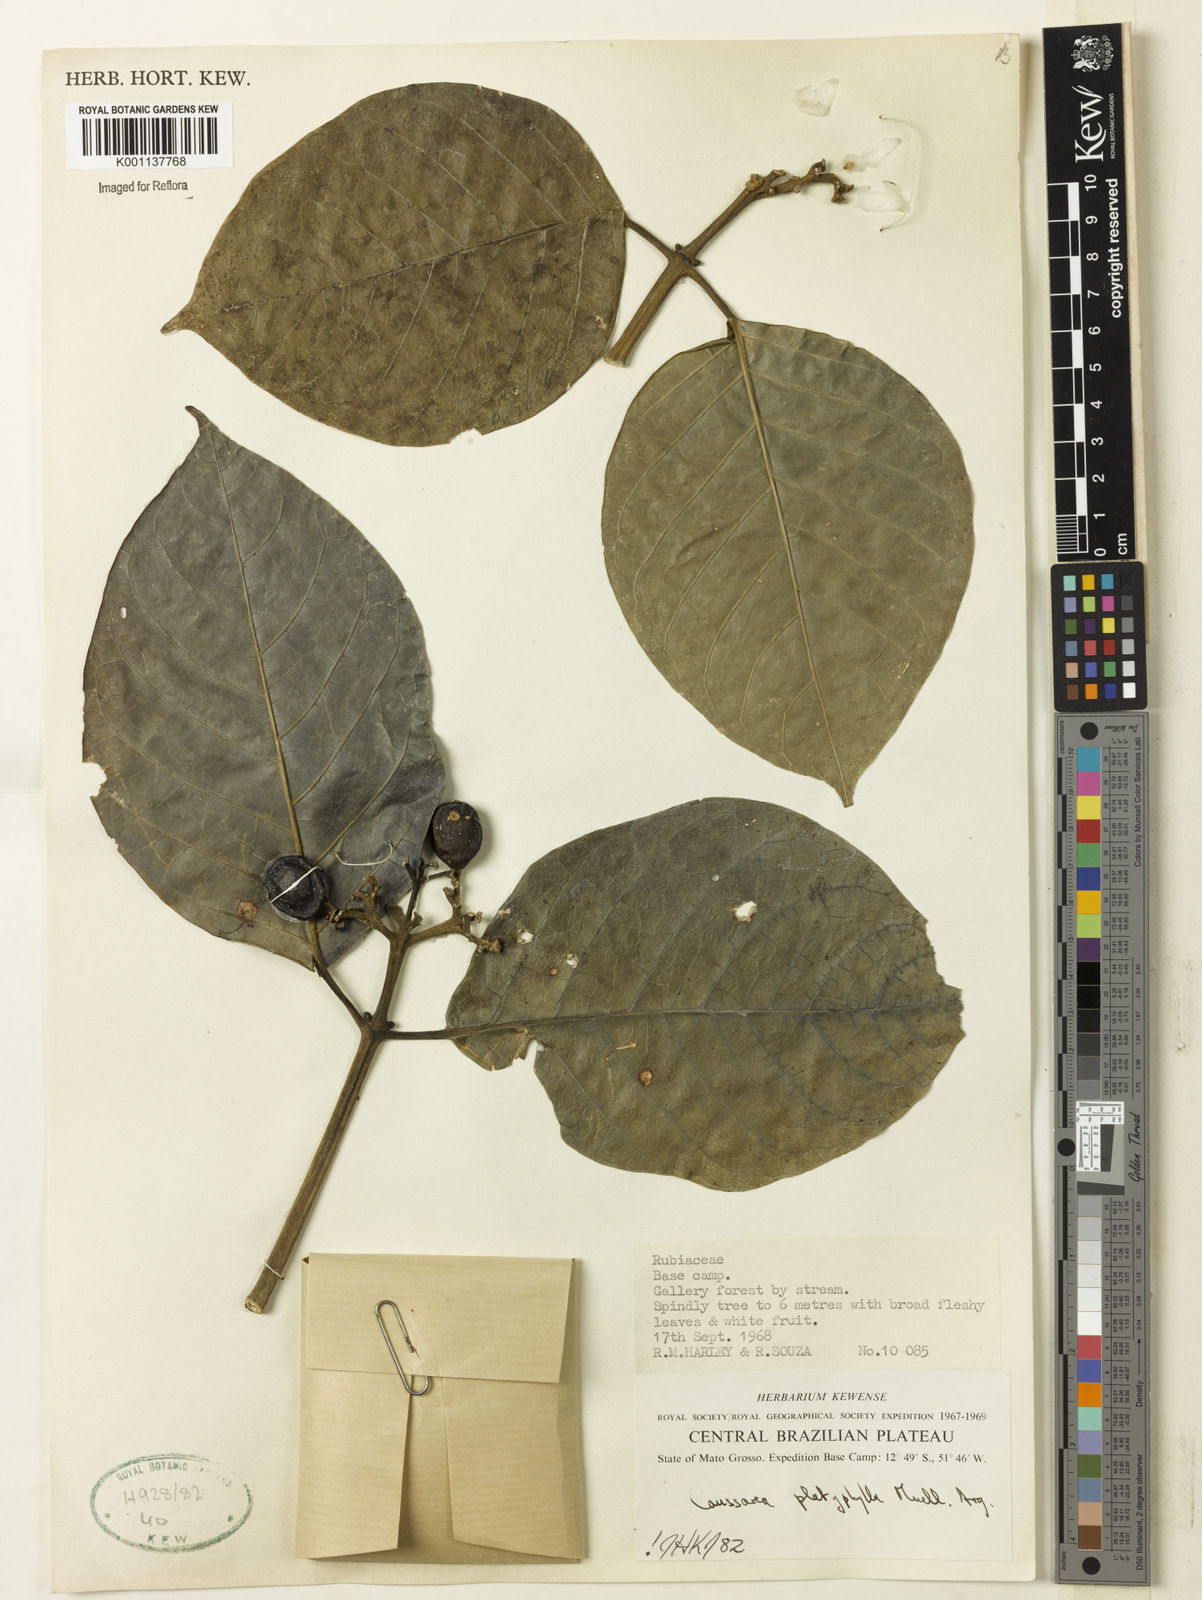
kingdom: Plantae
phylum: Tracheophyta
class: Magnoliopsida
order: Gentianales
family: Rubiaceae
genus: Coussarea
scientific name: Coussarea
